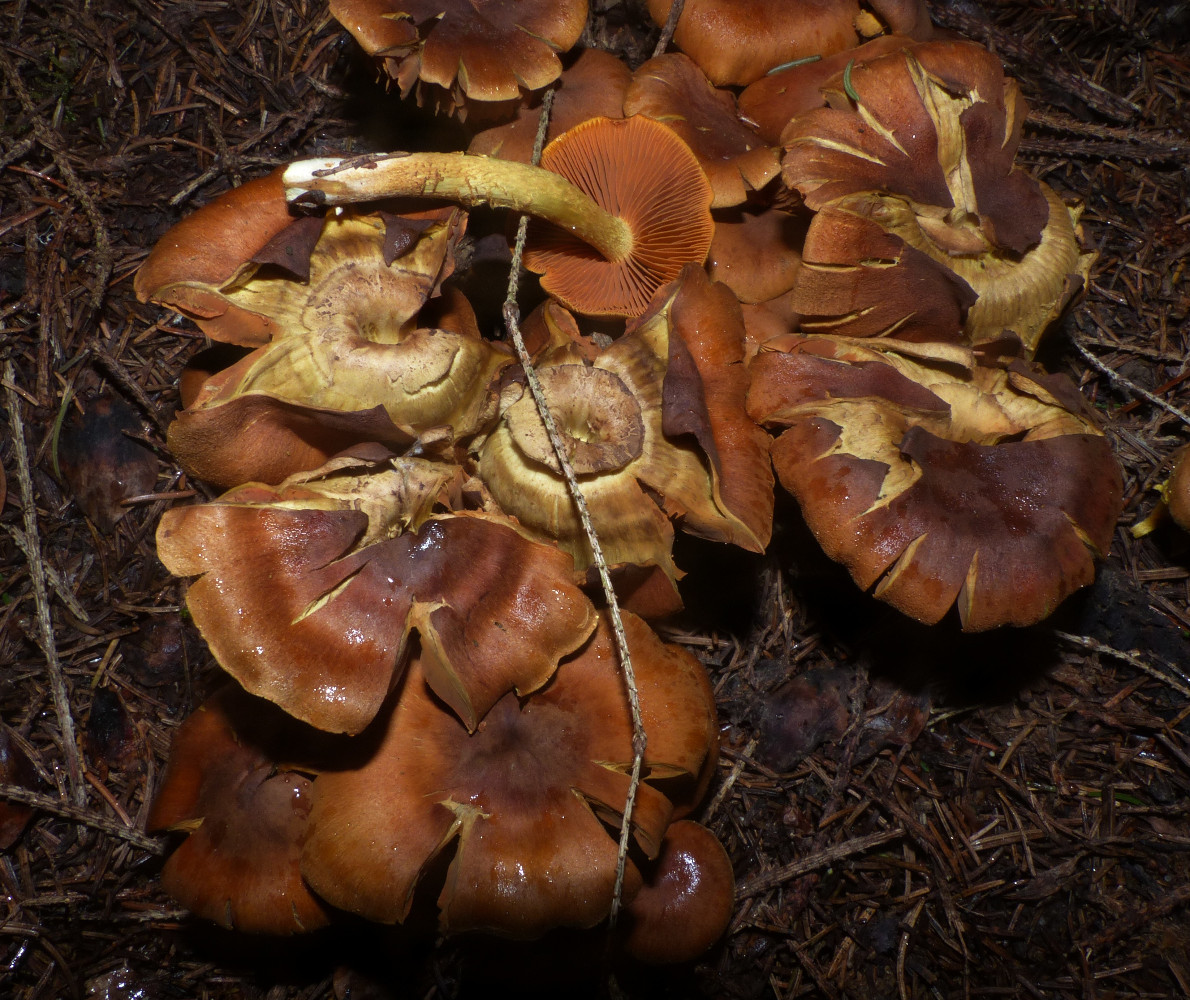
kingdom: Fungi
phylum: Basidiomycota
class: Agaricomycetes
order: Agaricales
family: Cortinariaceae
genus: Cortinarius
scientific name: Cortinarius malicorius
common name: grønkødet slørhat
